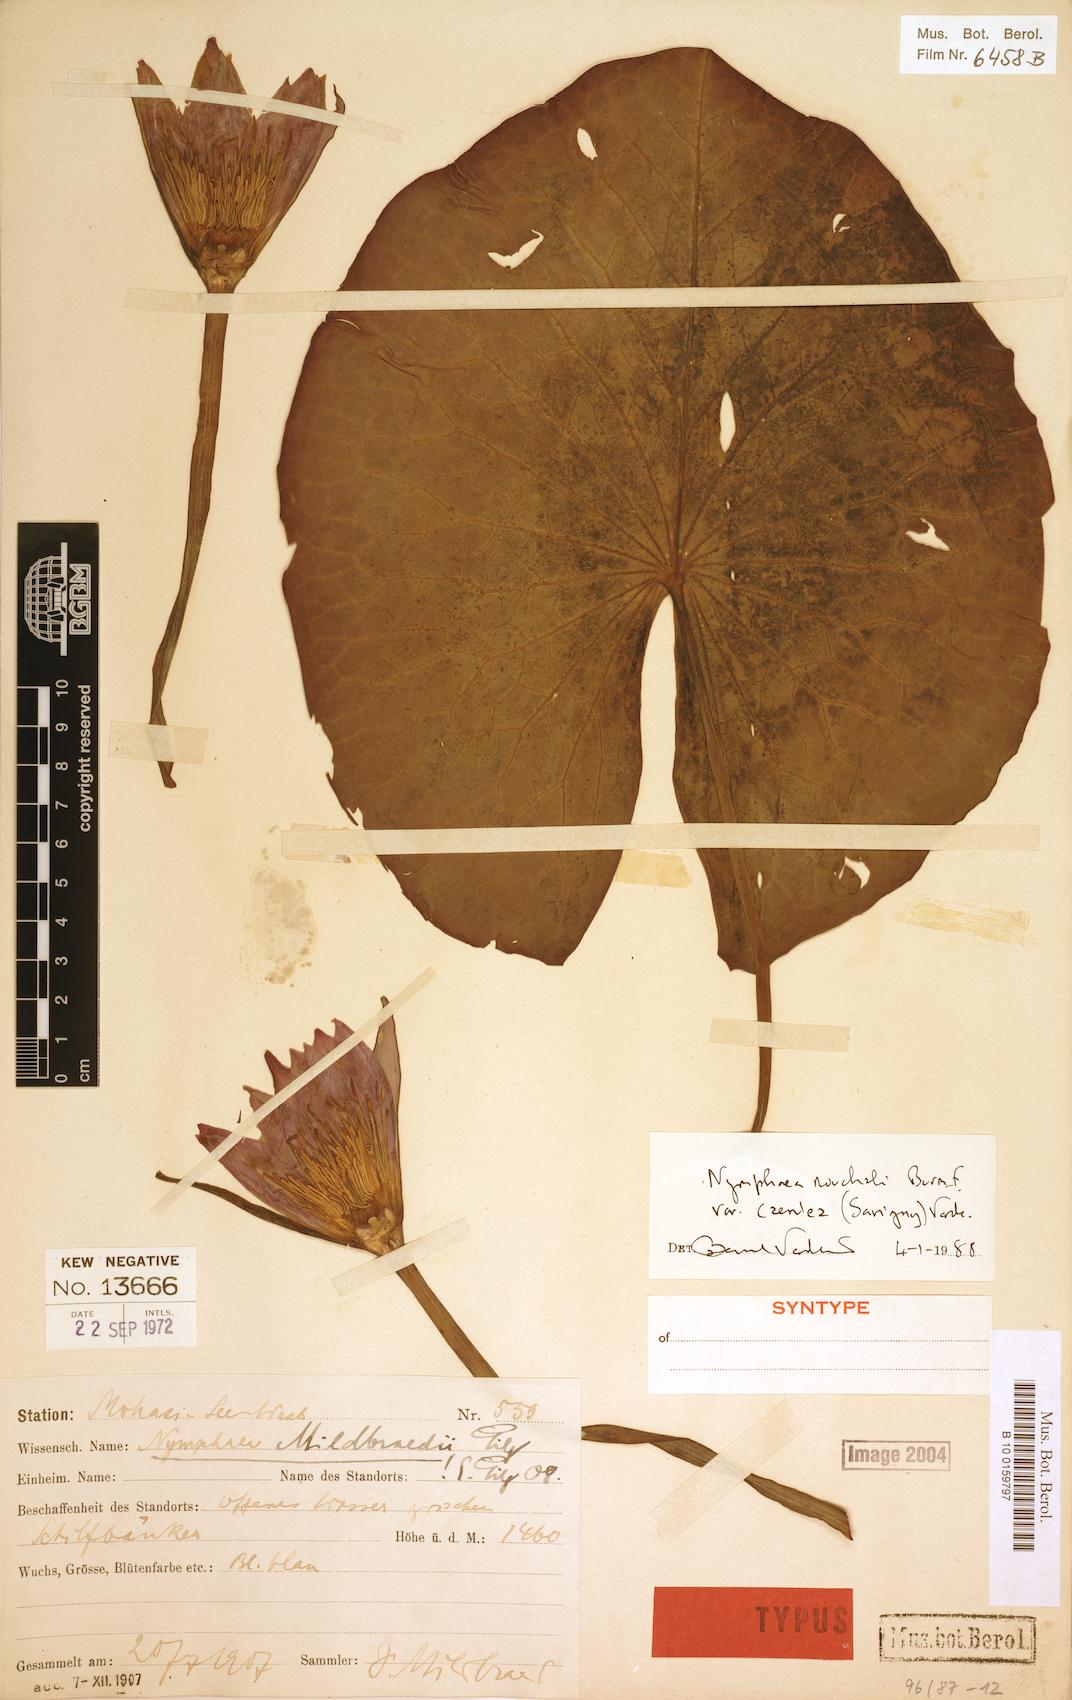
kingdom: Plantae
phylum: Tracheophyta
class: Magnoliopsida
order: Nymphaeales
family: Nymphaeaceae
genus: Nymphaea
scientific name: Nymphaea nouchali
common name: Blue lotus
